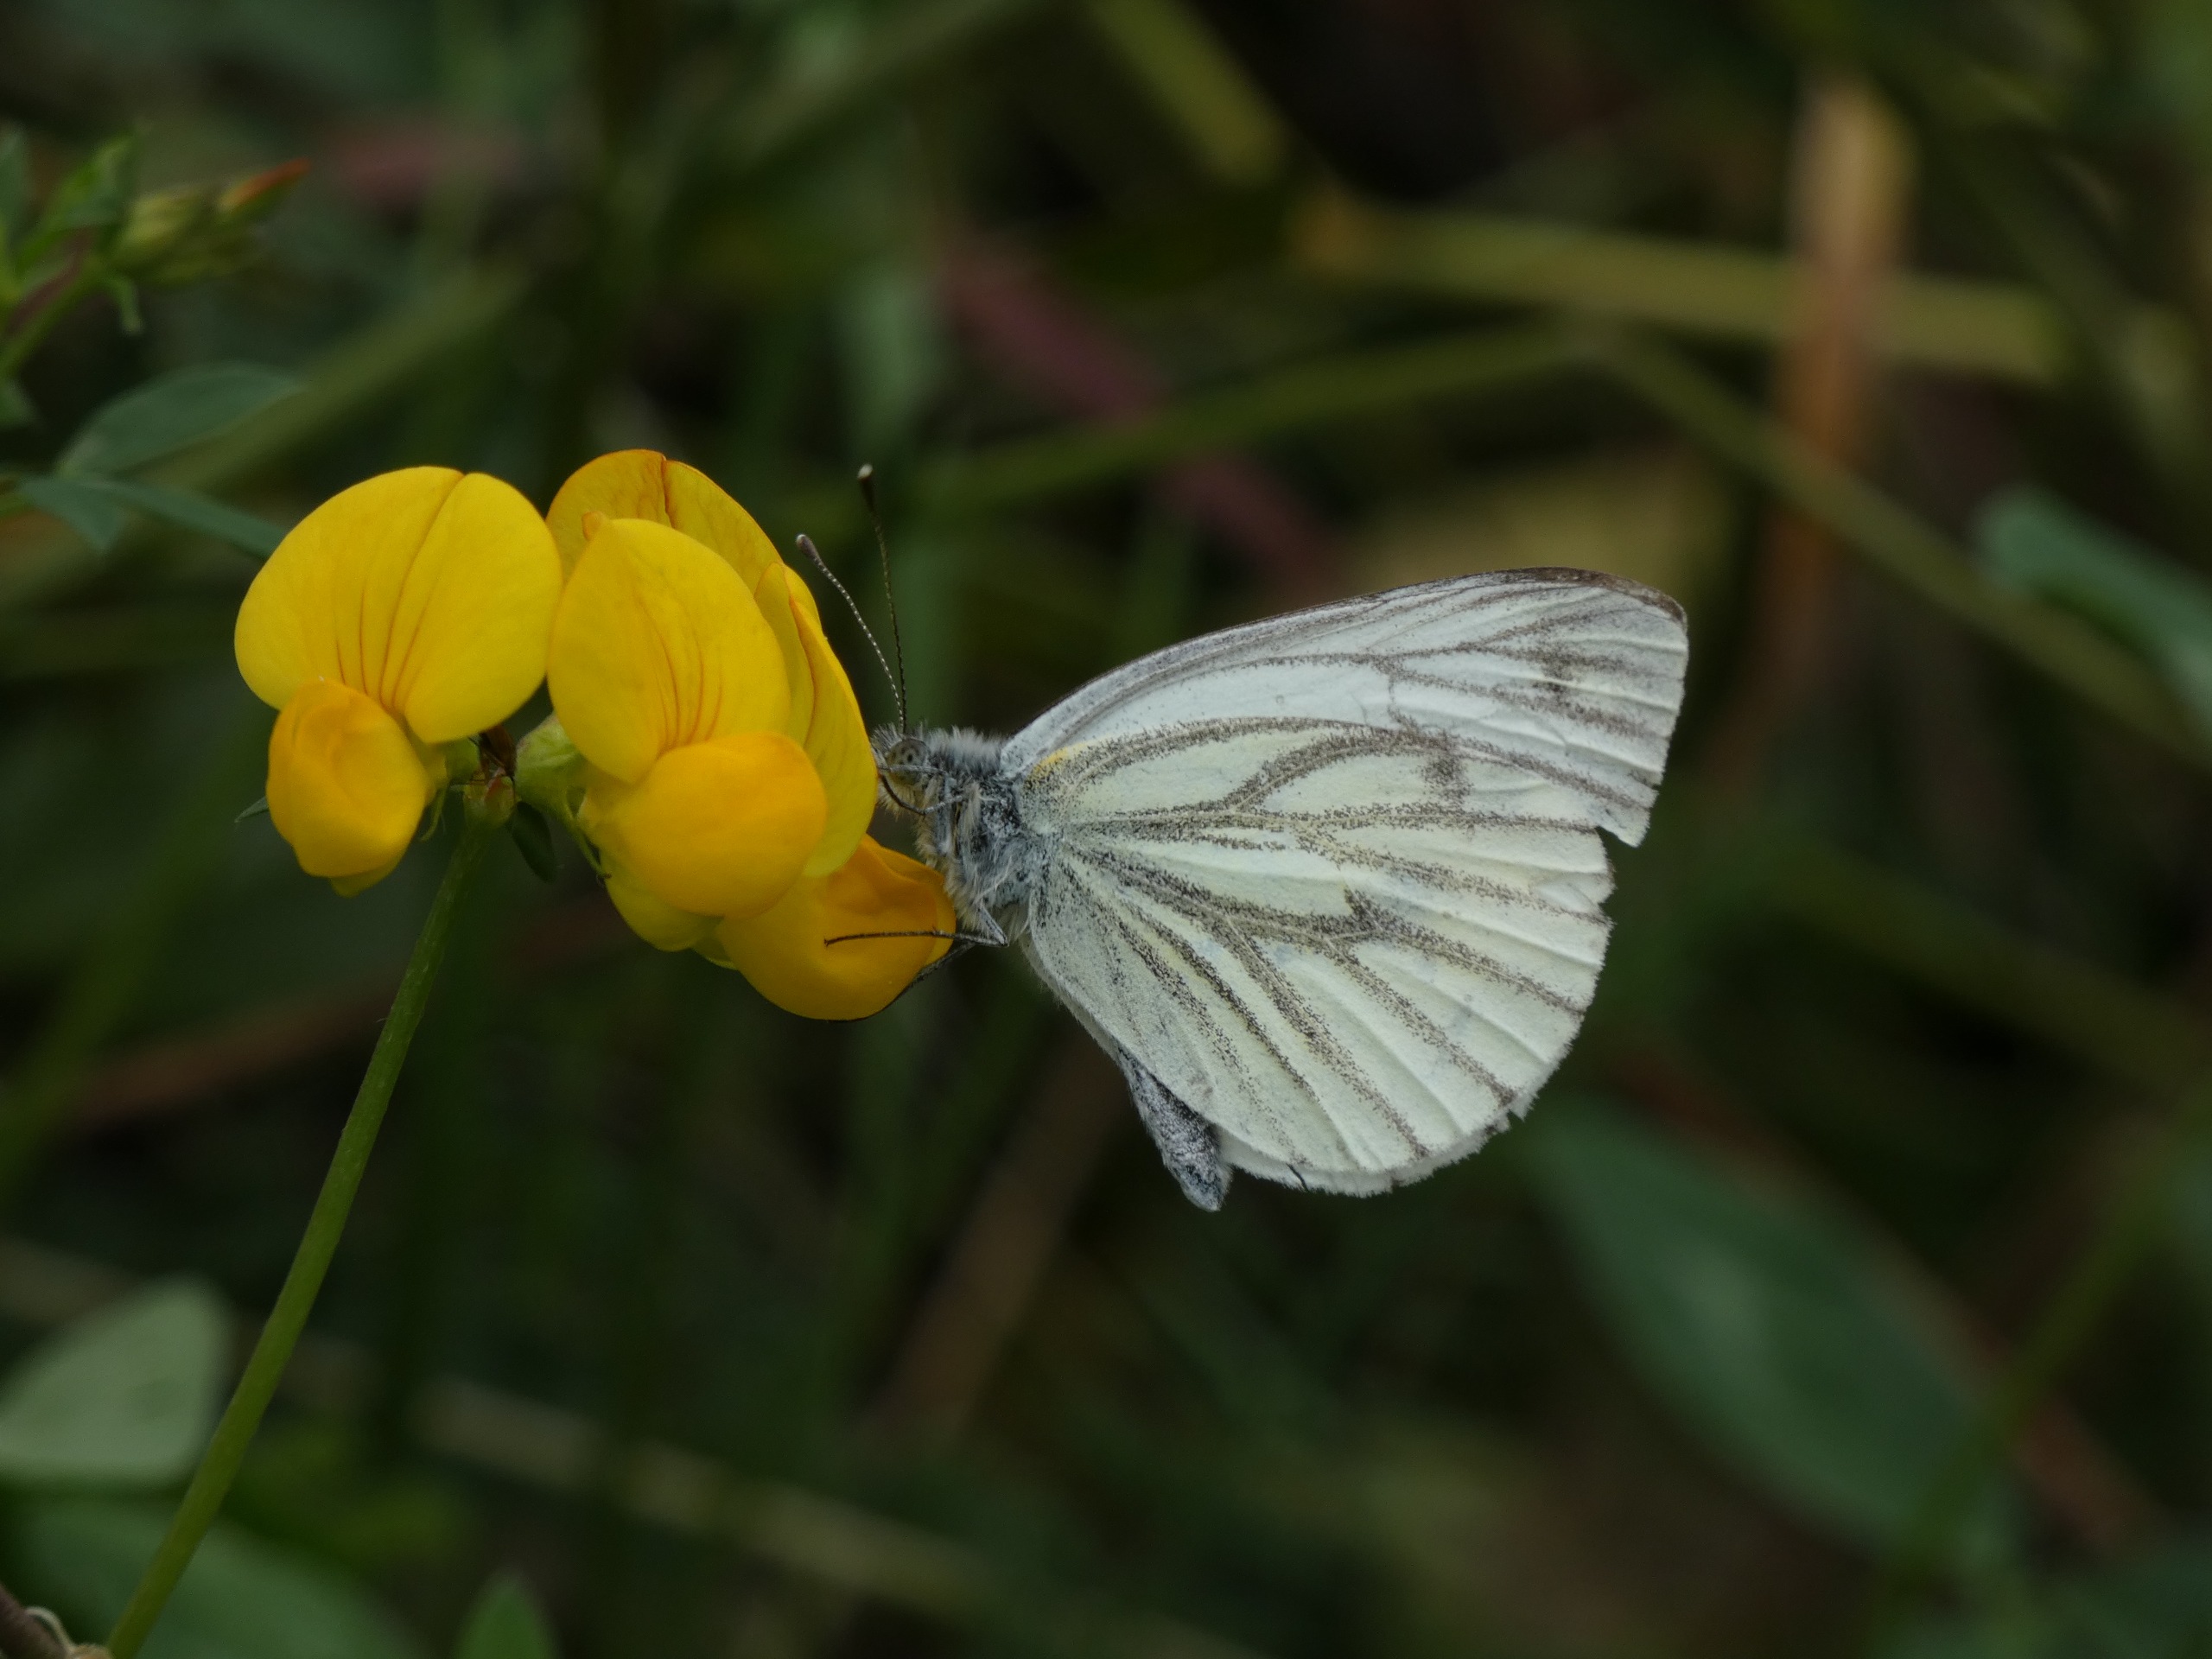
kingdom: Animalia
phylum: Arthropoda
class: Insecta
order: Lepidoptera
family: Pieridae
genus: Pieris
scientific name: Pieris napi
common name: Grønåret kålsommerfugl
